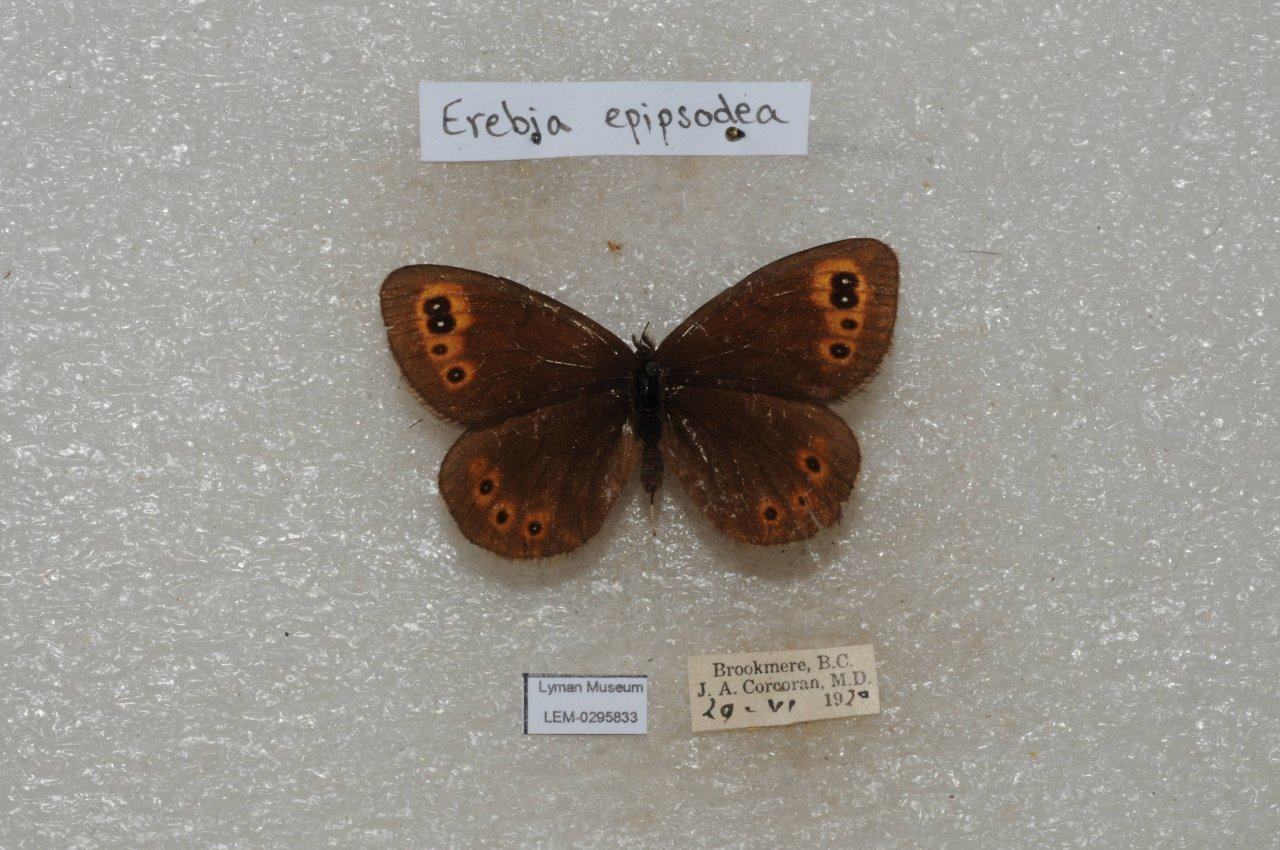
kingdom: Animalia
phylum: Arthropoda
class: Insecta
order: Lepidoptera
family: Nymphalidae
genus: Erebia
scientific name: Erebia epipsodea
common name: Common Alpine
